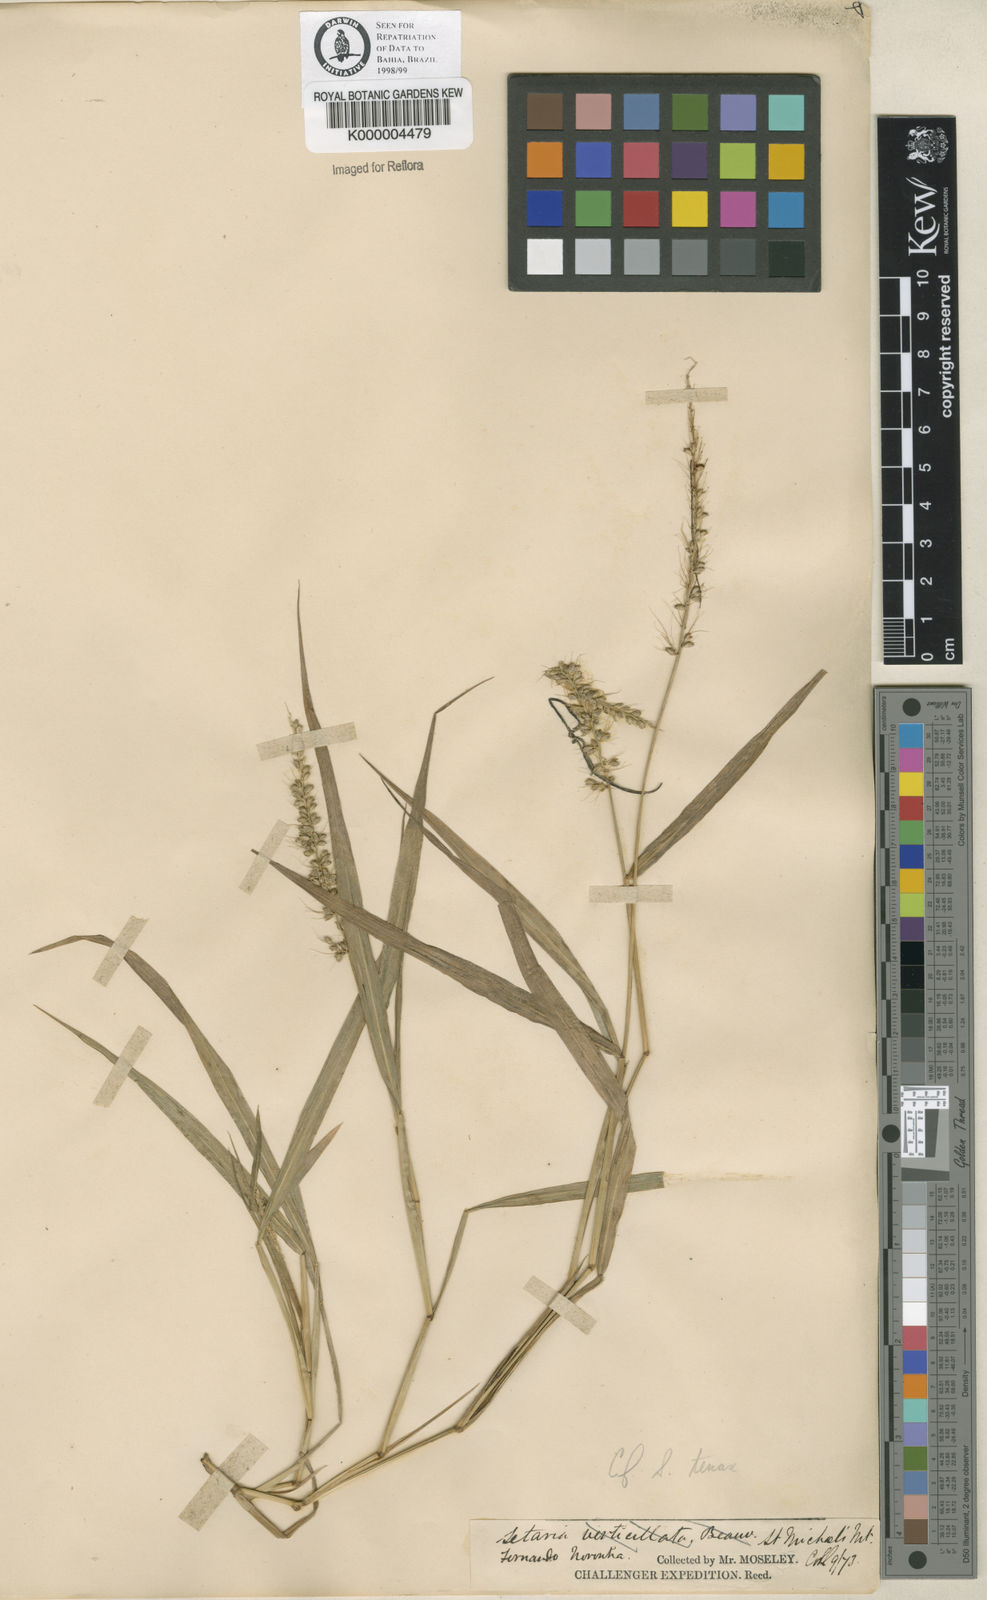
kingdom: Plantae
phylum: Tracheophyta
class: Liliopsida
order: Poales
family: Poaceae
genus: Setaria
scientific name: Setaria tenax
